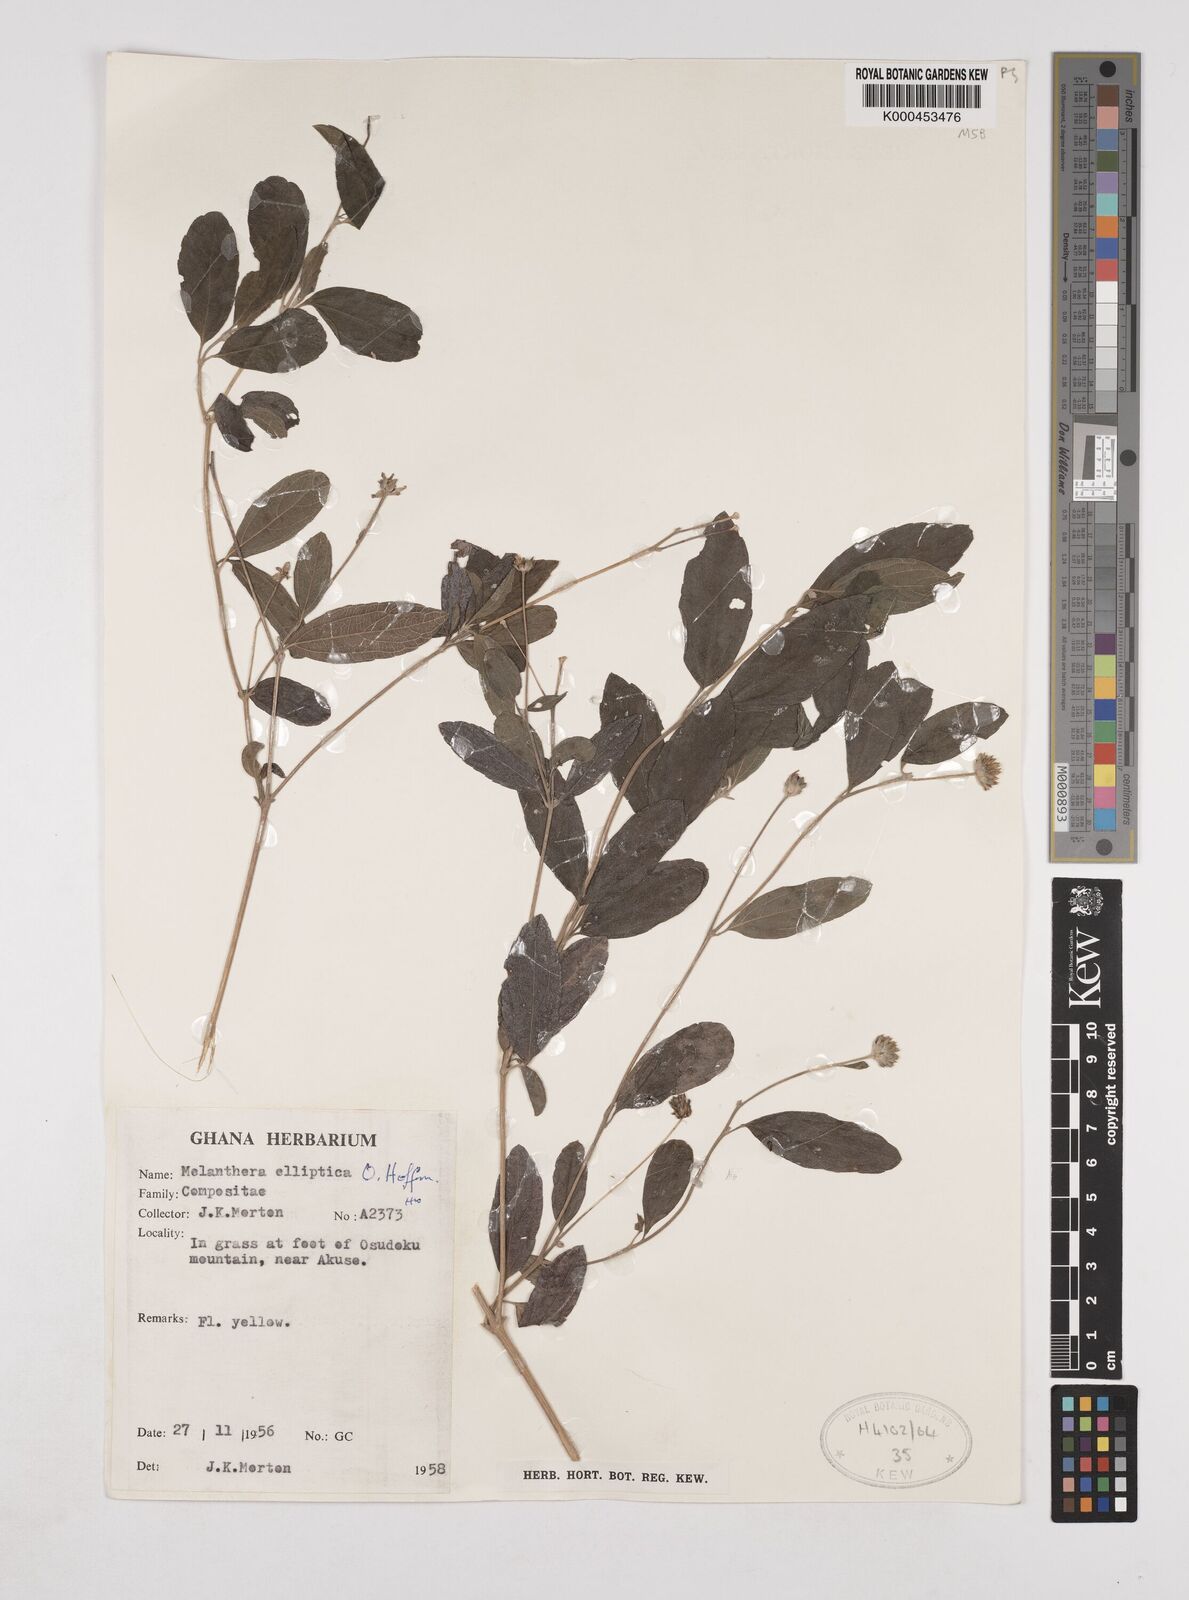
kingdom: Plantae
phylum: Tracheophyta
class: Magnoliopsida
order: Asterales
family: Asteraceae
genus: Lipotriche
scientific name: Lipotriche elliptica
